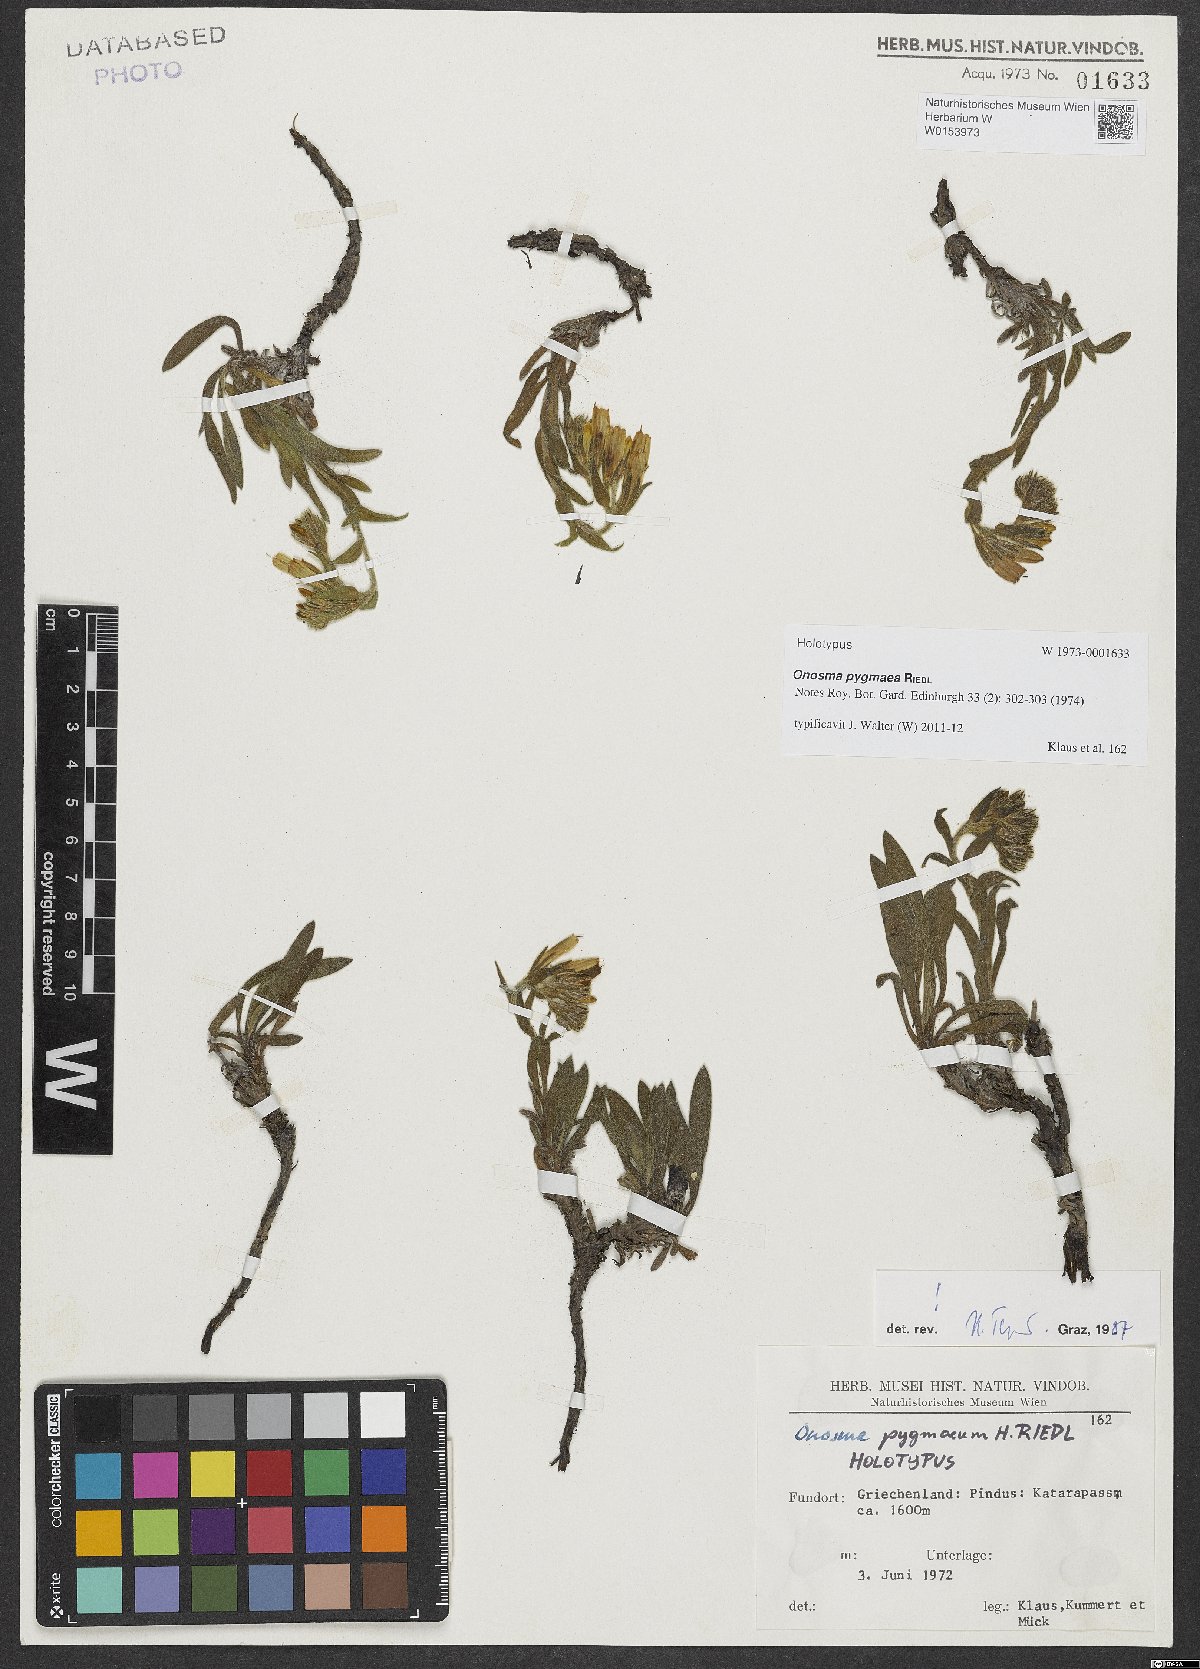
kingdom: Plantae
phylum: Tracheophyta
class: Magnoliopsida
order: Boraginales
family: Boraginaceae
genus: Onosma
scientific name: Onosma stellulata
